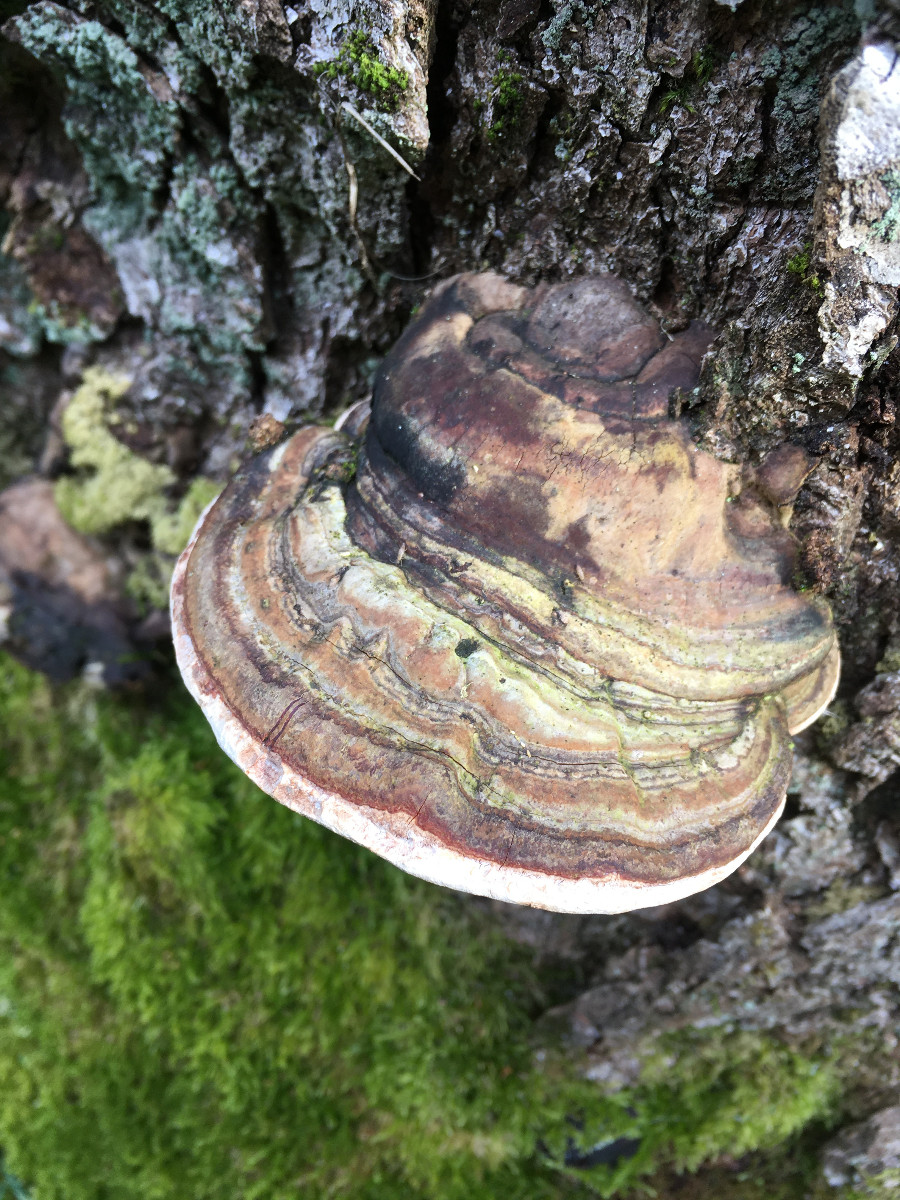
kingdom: Fungi
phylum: Basidiomycota
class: Agaricomycetes
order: Polyporales
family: Fomitopsidaceae
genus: Fomitopsis
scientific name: Fomitopsis pinicola
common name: randbæltet hovporesvamp
